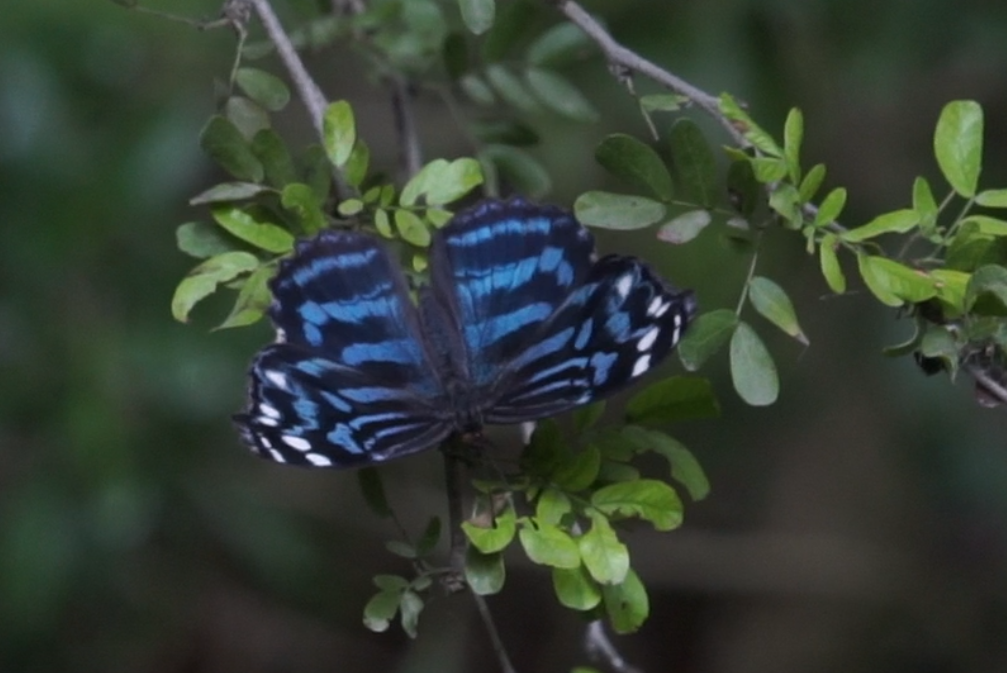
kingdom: Animalia
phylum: Arthropoda
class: Insecta
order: Lepidoptera
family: Nymphalidae
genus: Myscelia
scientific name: Myscelia ethusa
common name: Mexican Bluewing
